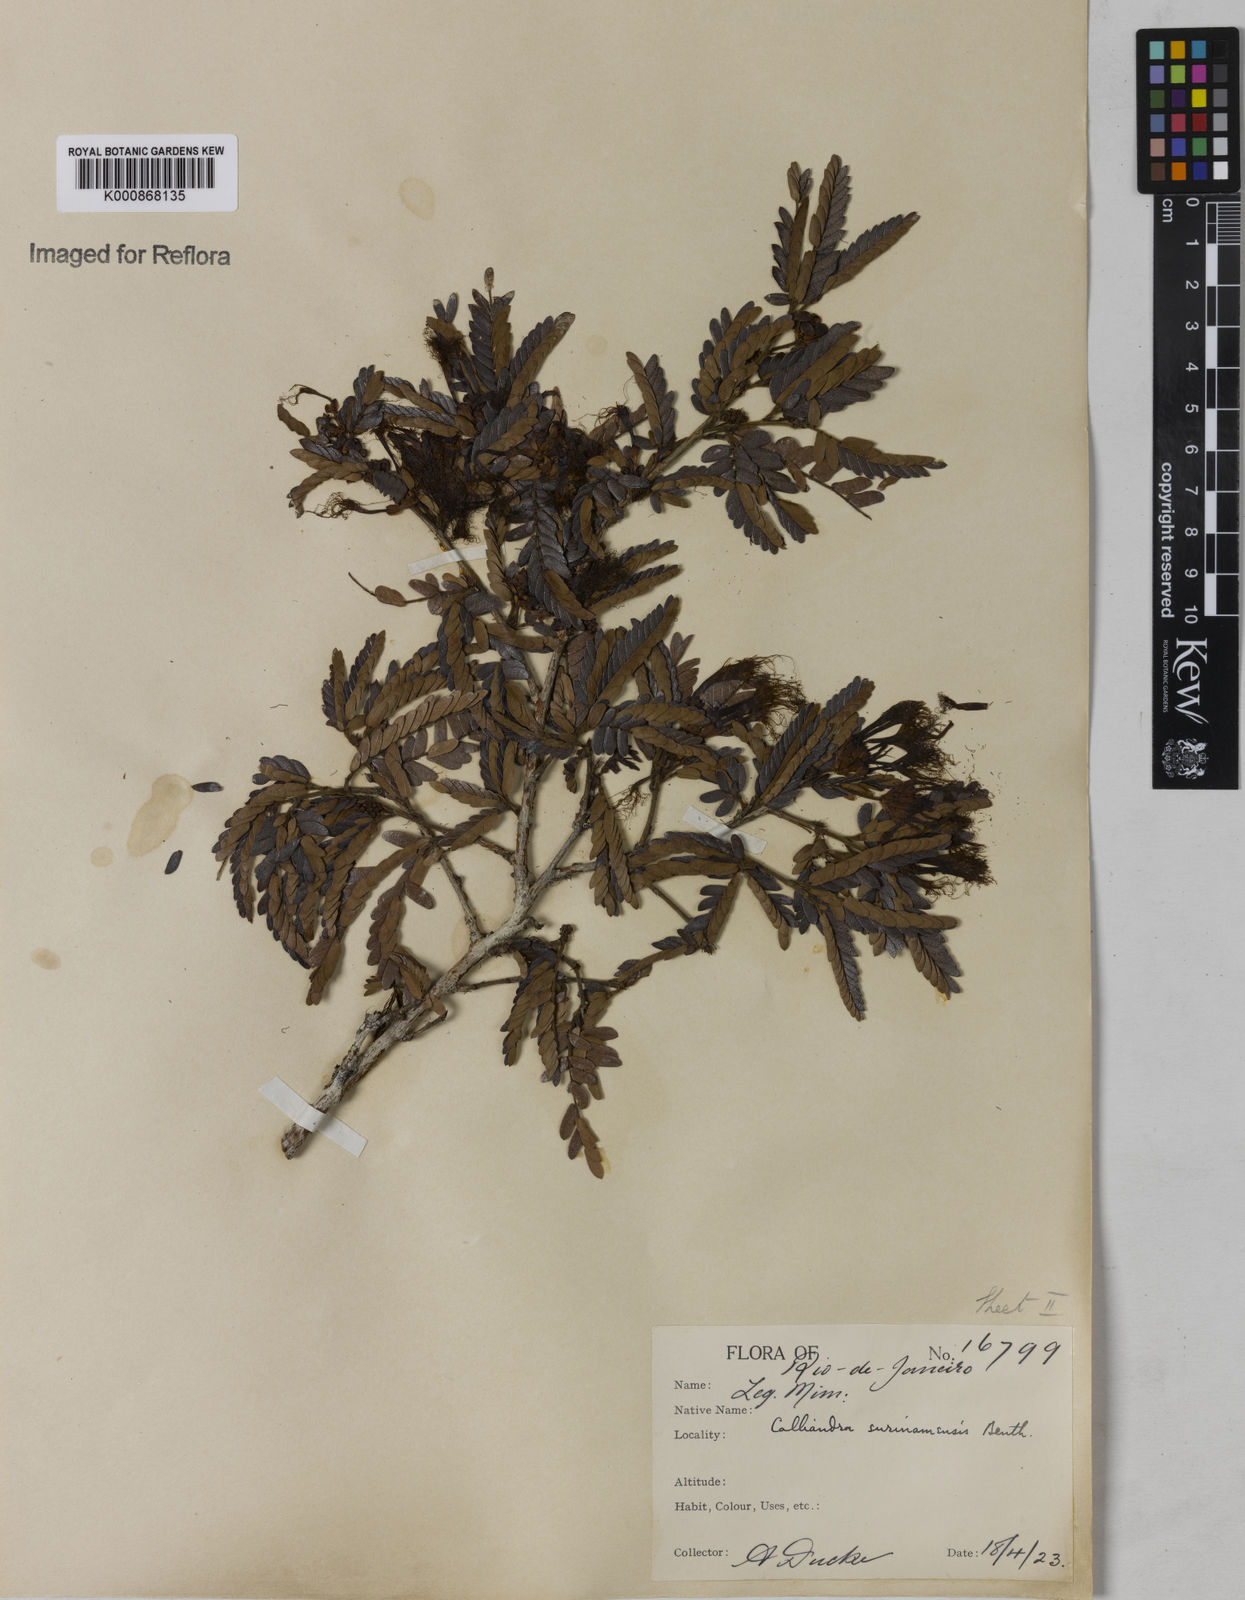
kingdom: Plantae
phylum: Tracheophyta
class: Magnoliopsida
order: Fabales
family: Fabaceae
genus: Calliandra
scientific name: Calliandra surinamensis
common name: Pink powder puff
